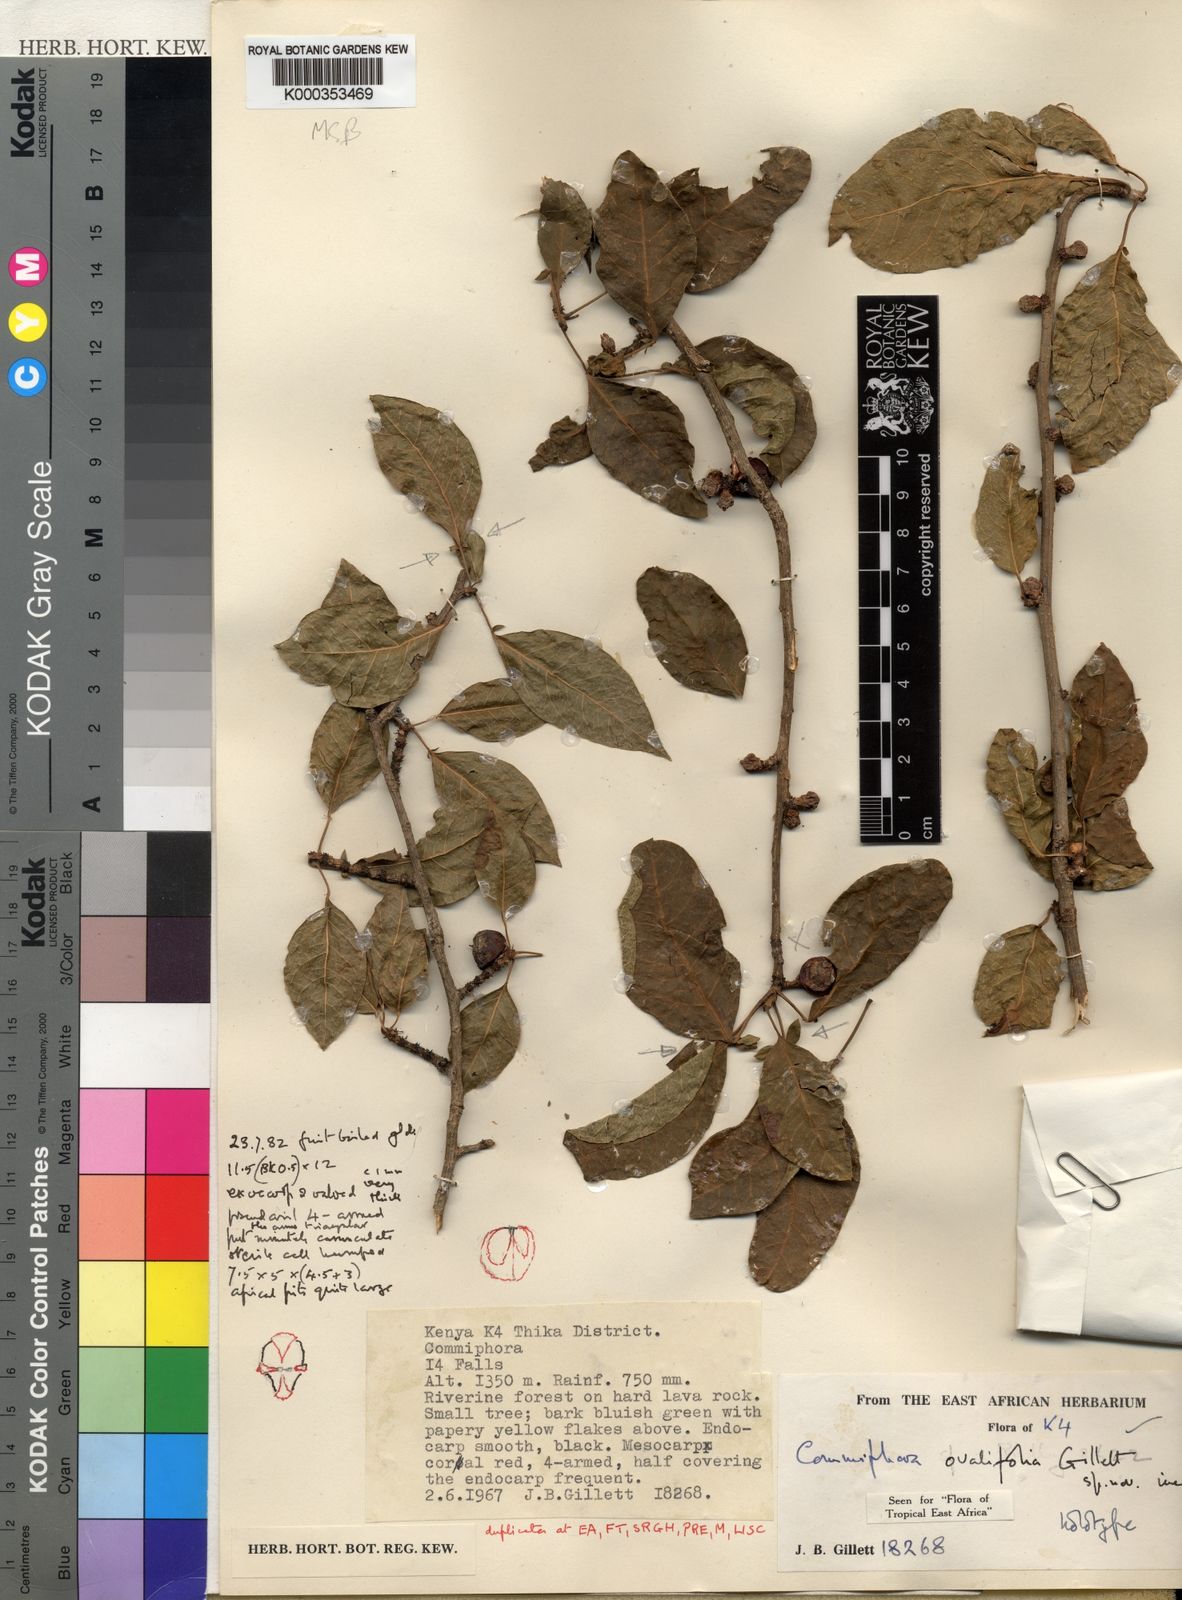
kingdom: Plantae
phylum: Tracheophyta
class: Magnoliopsida
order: Sapindales
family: Burseraceae
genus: Commiphora
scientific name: Commiphora ovalifolia
